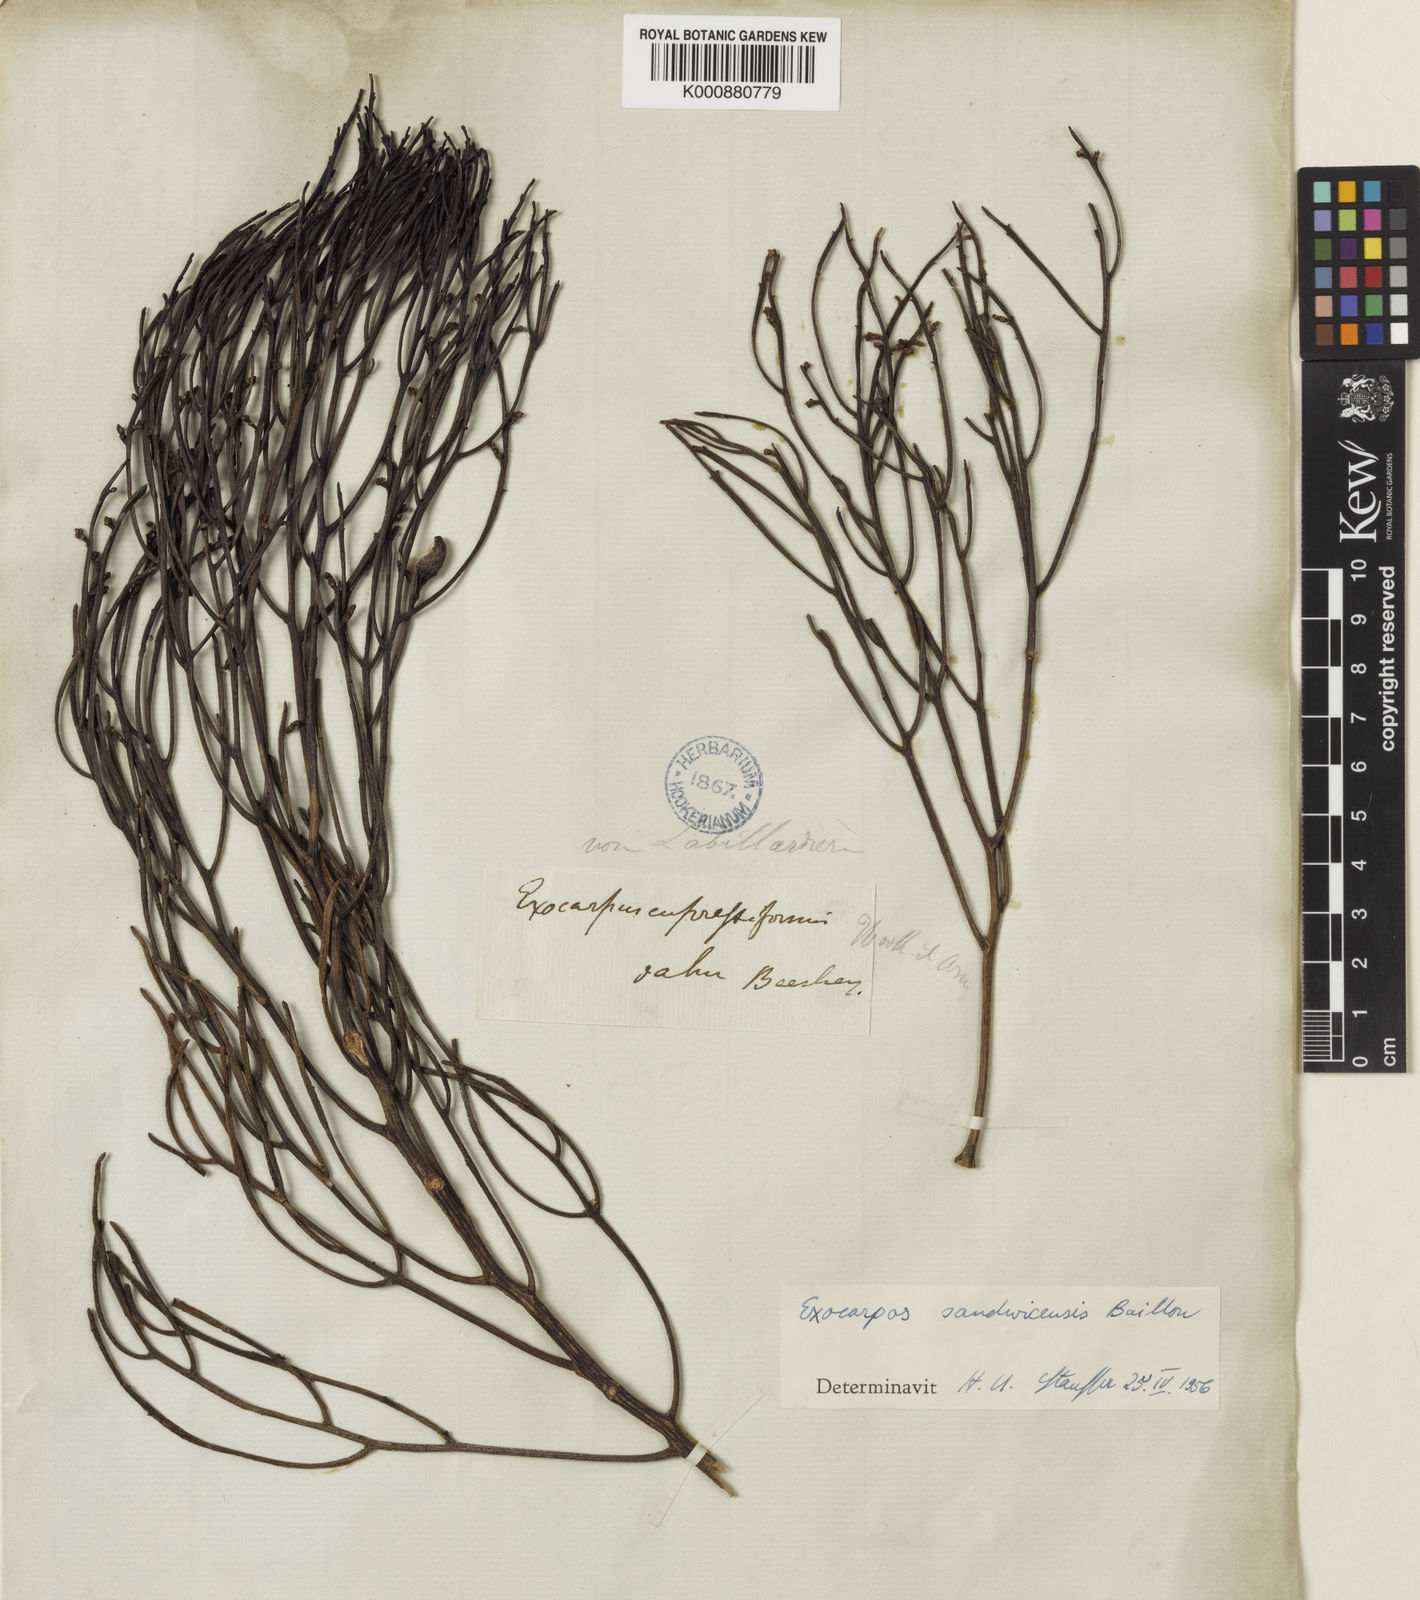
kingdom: Plantae
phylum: Tracheophyta
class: Magnoliopsida
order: Santalales
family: Santalaceae
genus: Exocarpos
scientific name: Exocarpos gaudichaudii
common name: Gaudichaud's exocarpus
